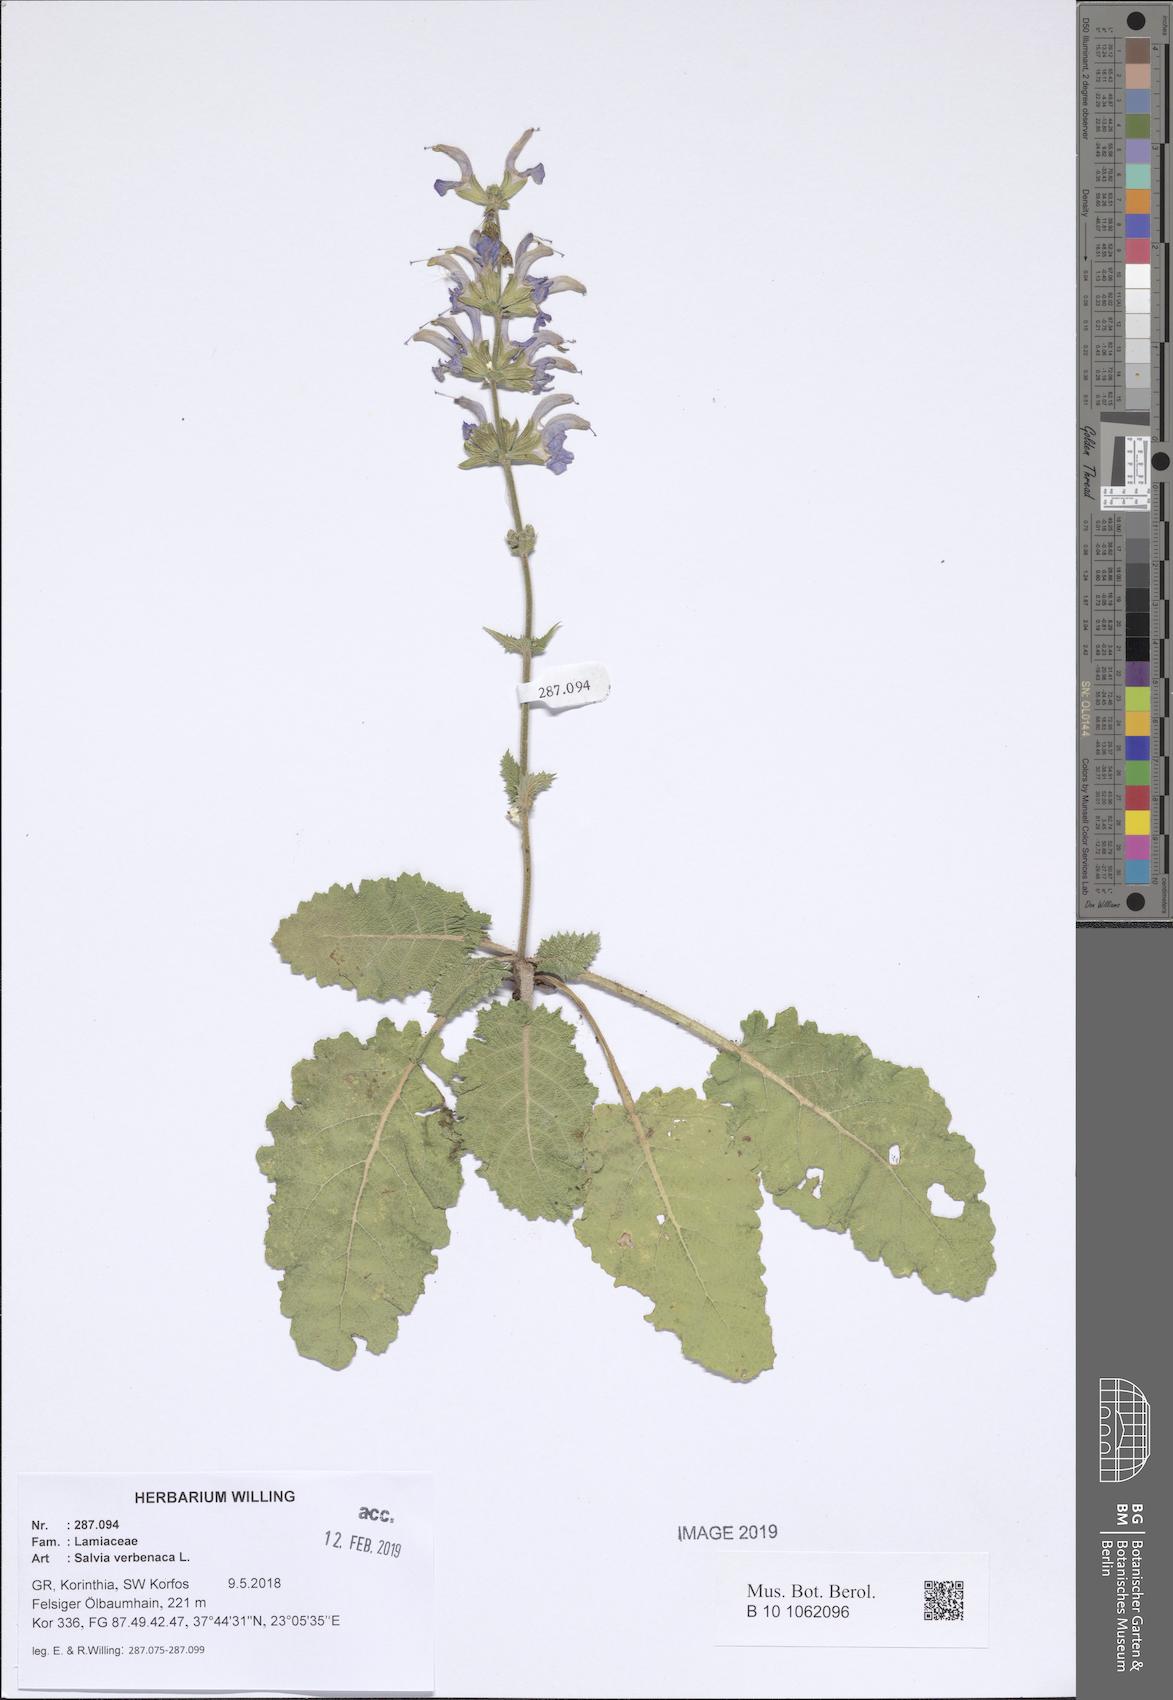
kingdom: Plantae
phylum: Tracheophyta
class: Magnoliopsida
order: Lamiales
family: Lamiaceae
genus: Salvia
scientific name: Salvia verbenaca
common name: Wild clary
